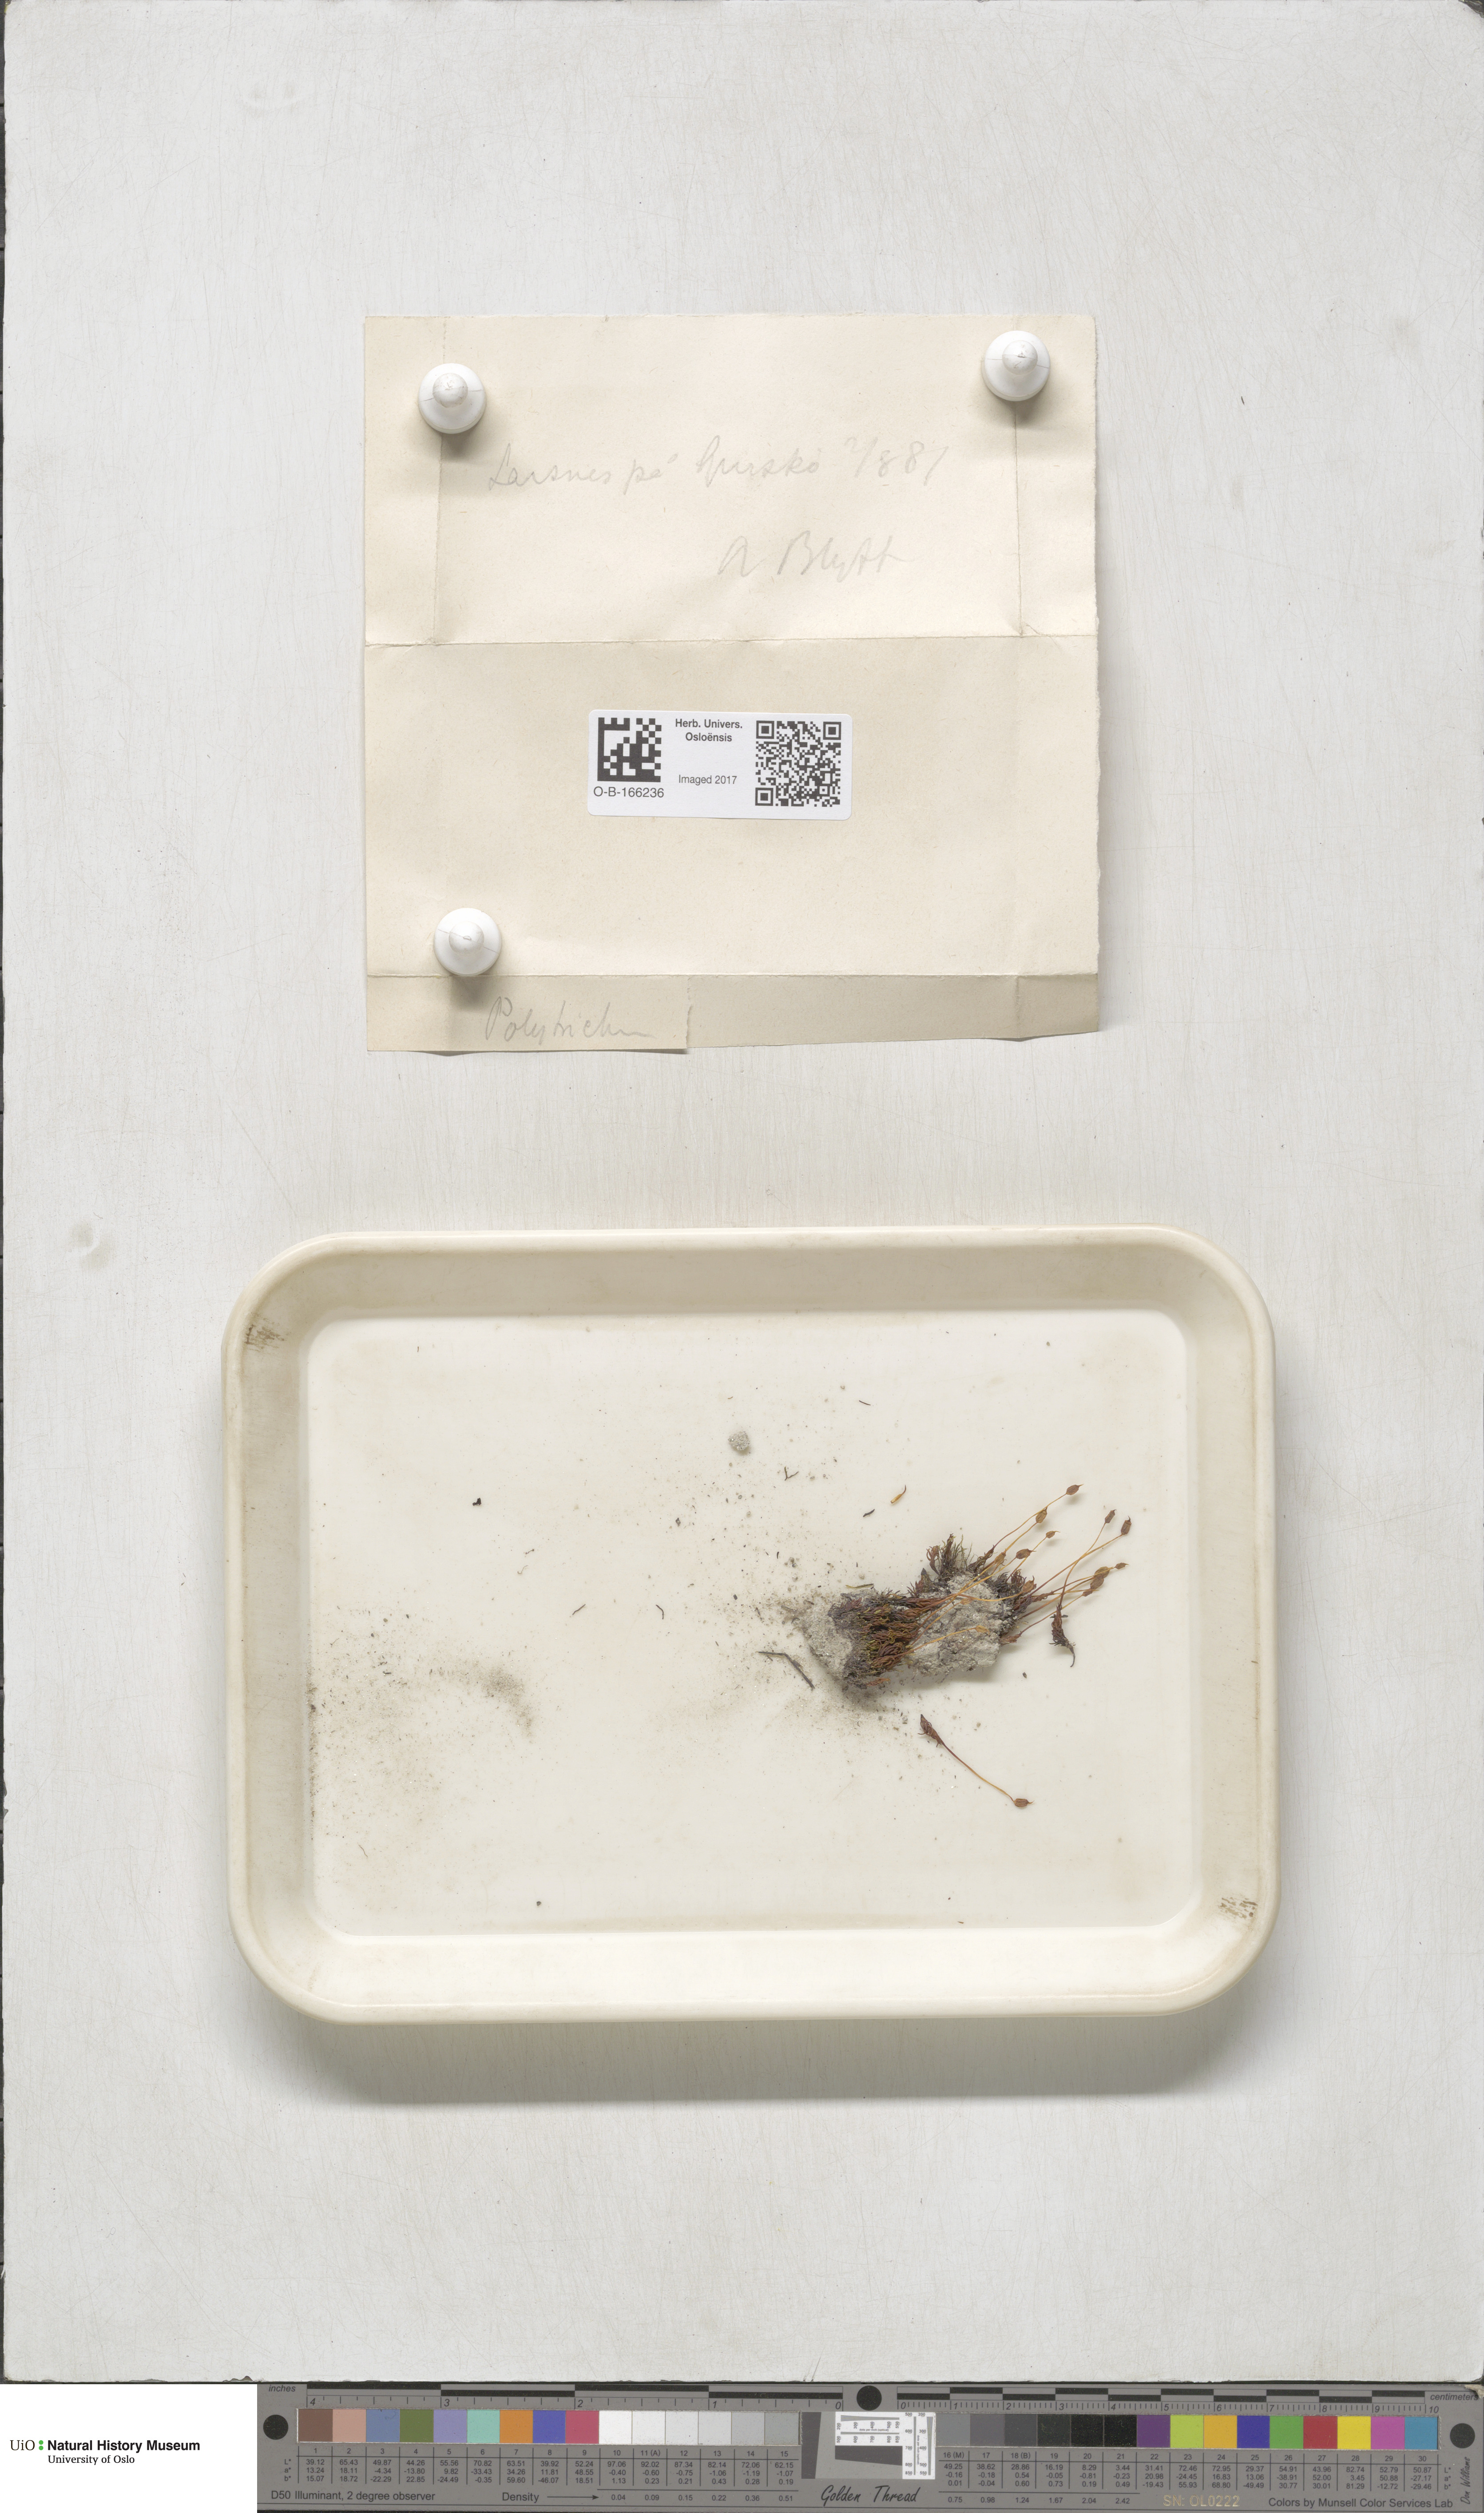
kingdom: Plantae
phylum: Bryophyta
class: Polytrichopsida
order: Polytrichales
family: Polytrichaceae
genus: Polytrichum
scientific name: Polytrichum
